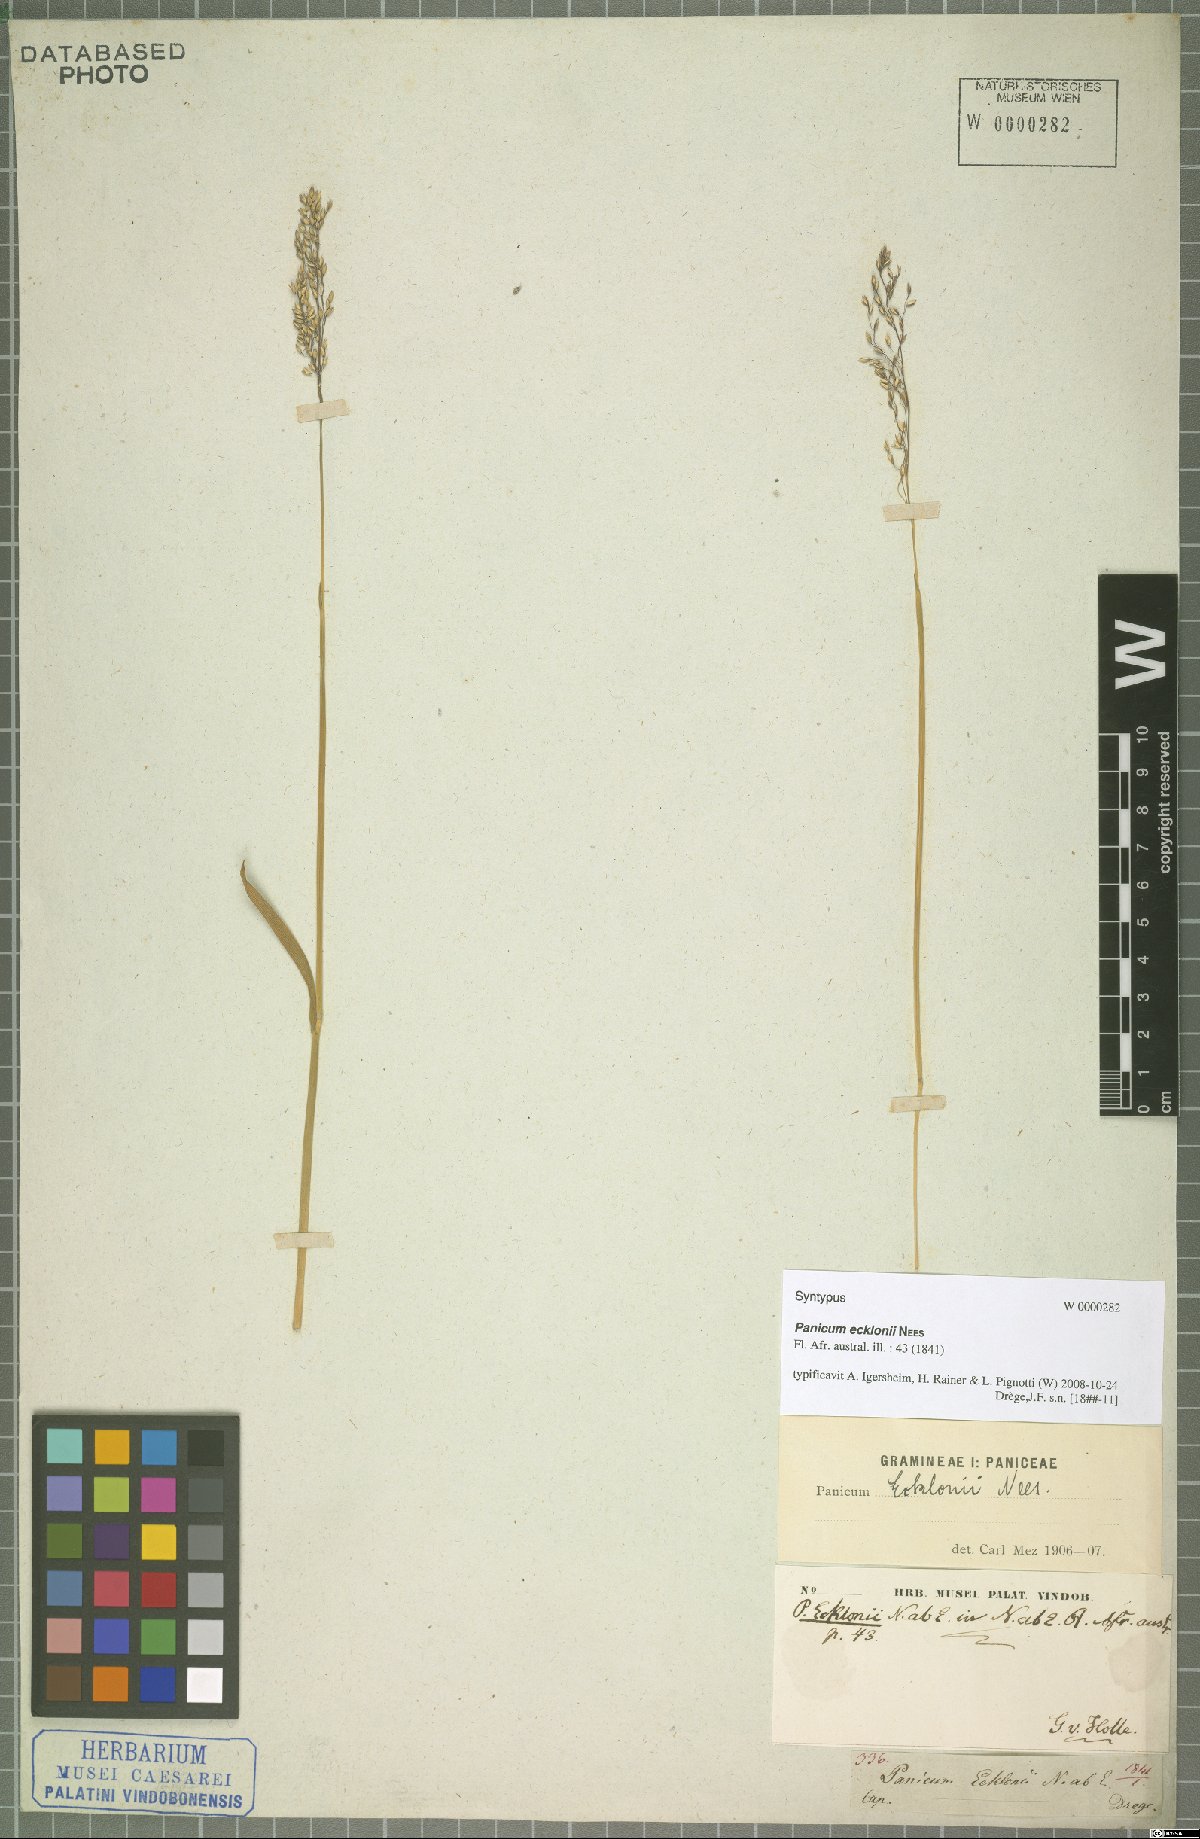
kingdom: Plantae
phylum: Tracheophyta
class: Liliopsida
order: Poales
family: Poaceae
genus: Adenochloa
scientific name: Adenochloa ecklonii
